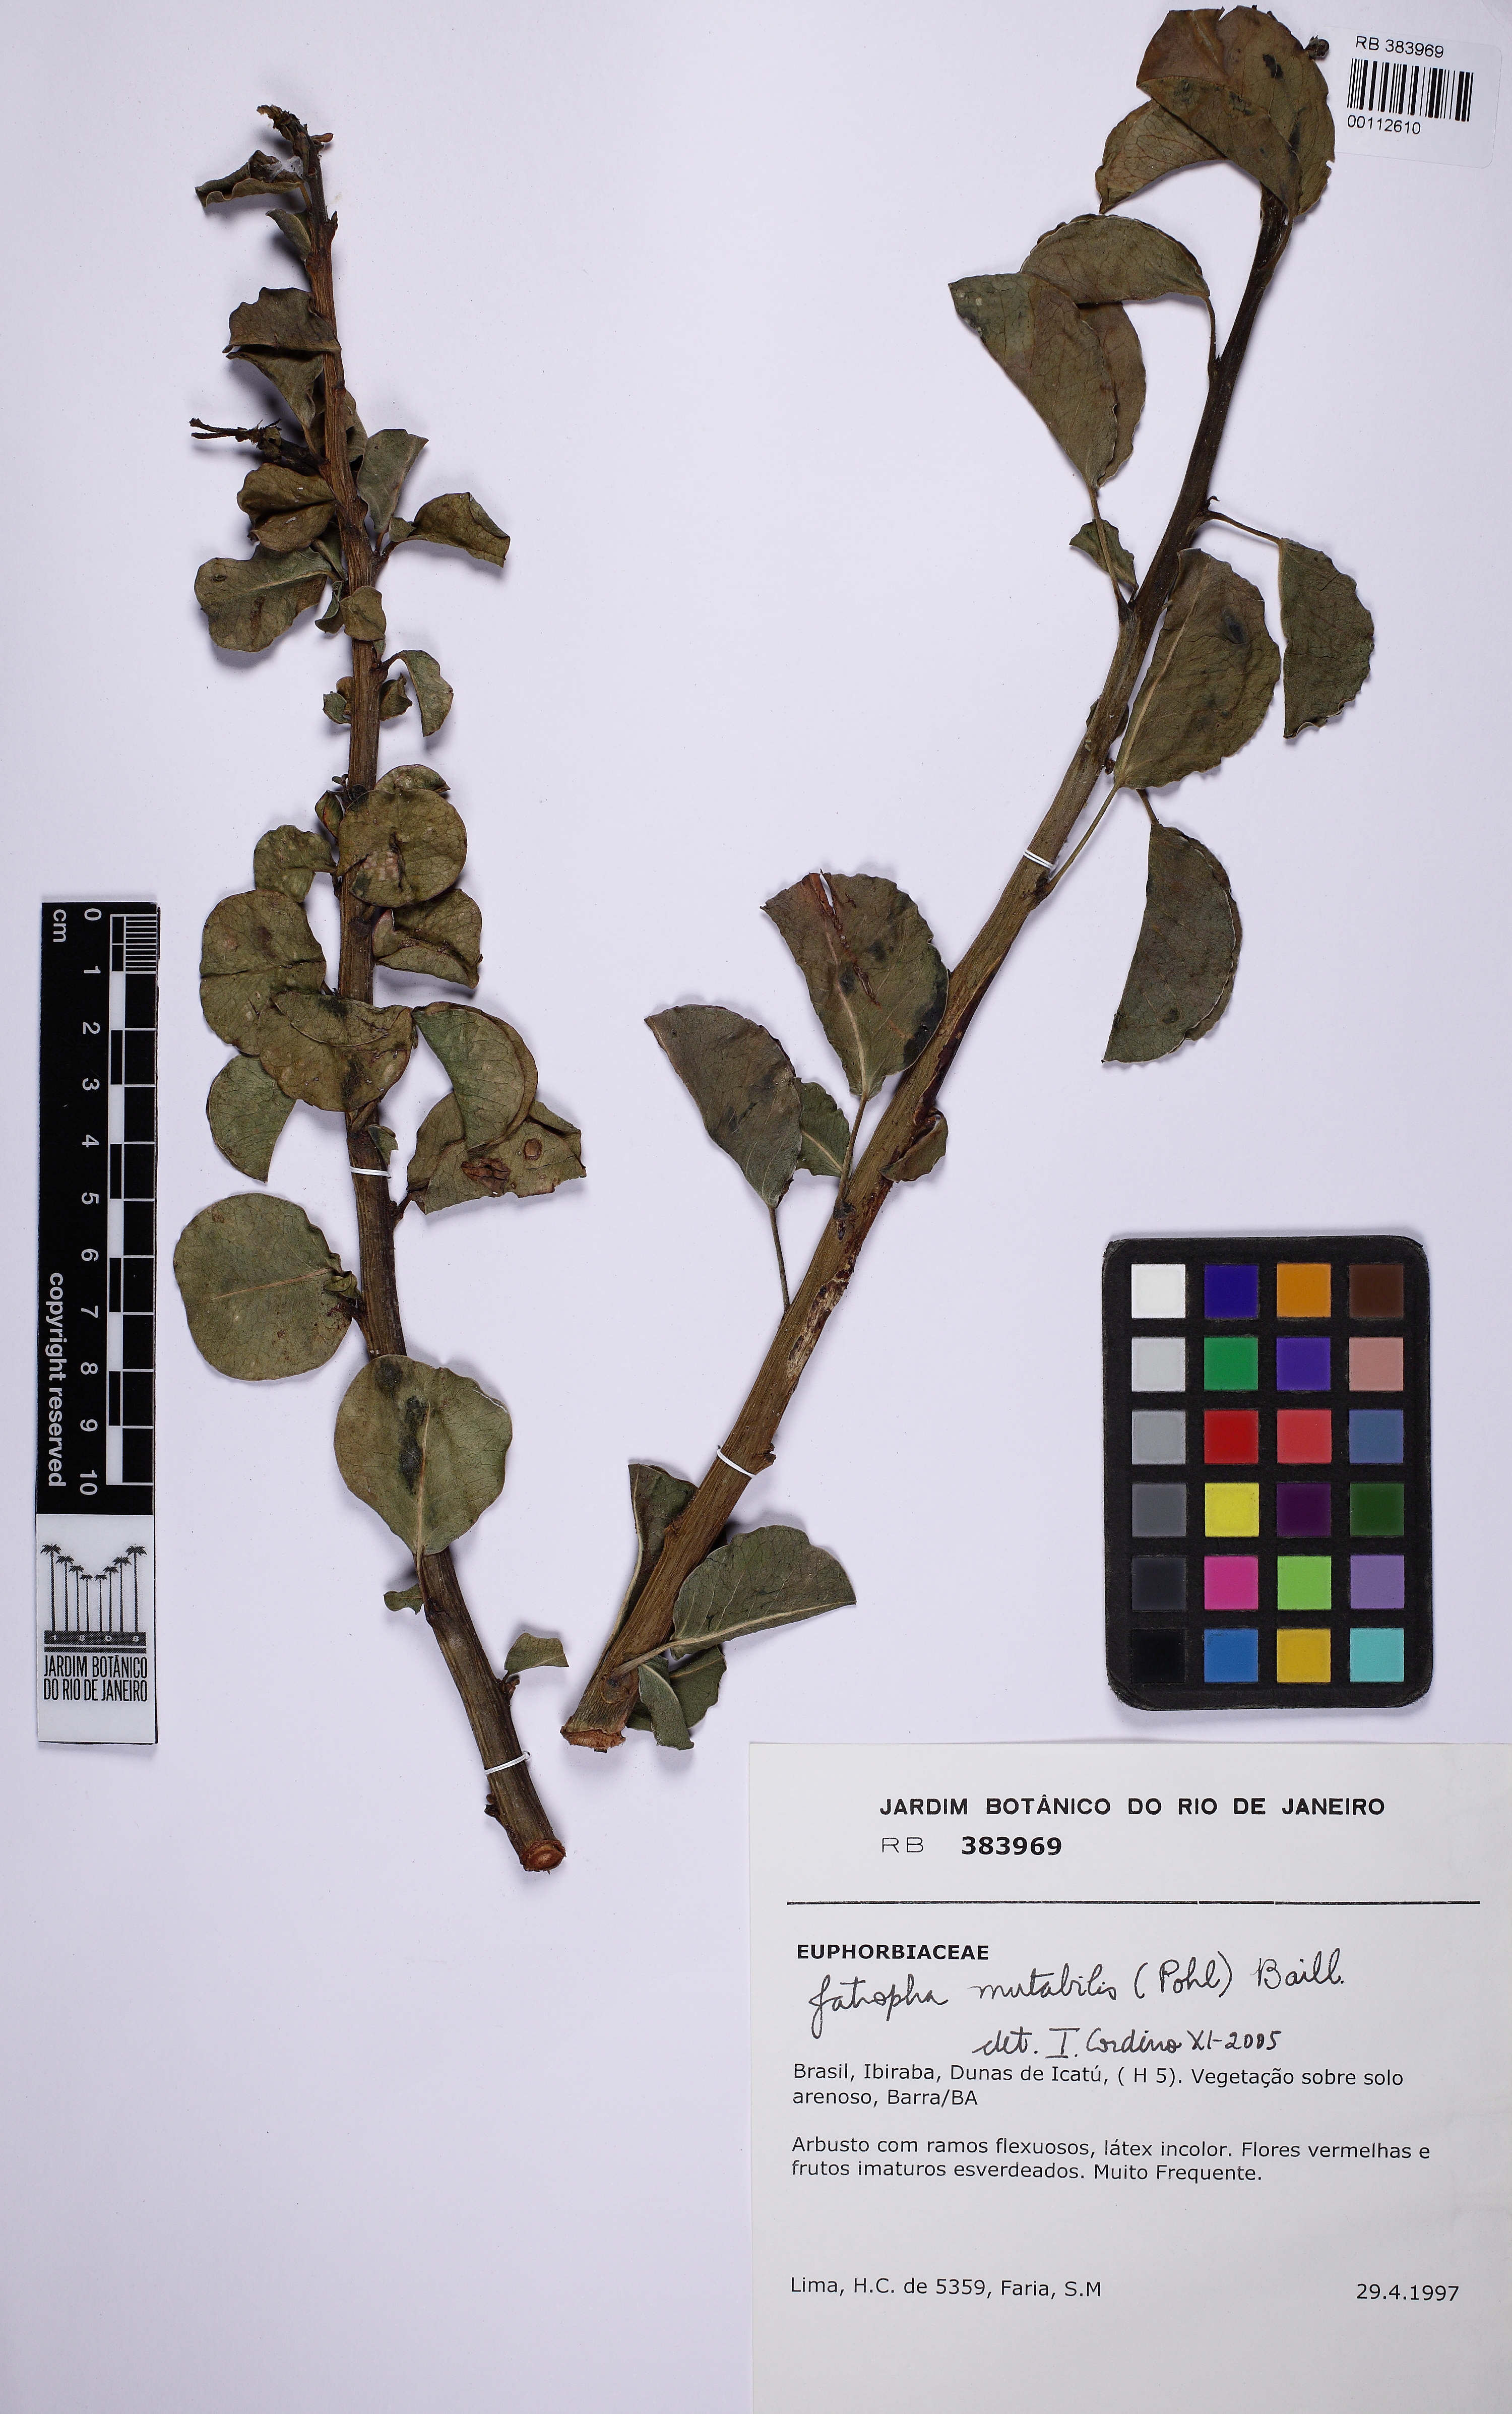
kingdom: Plantae
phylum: Tracheophyta
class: Magnoliopsida
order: Malpighiales
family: Euphorbiaceae
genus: Jatropha
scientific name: Jatropha mutabilis
